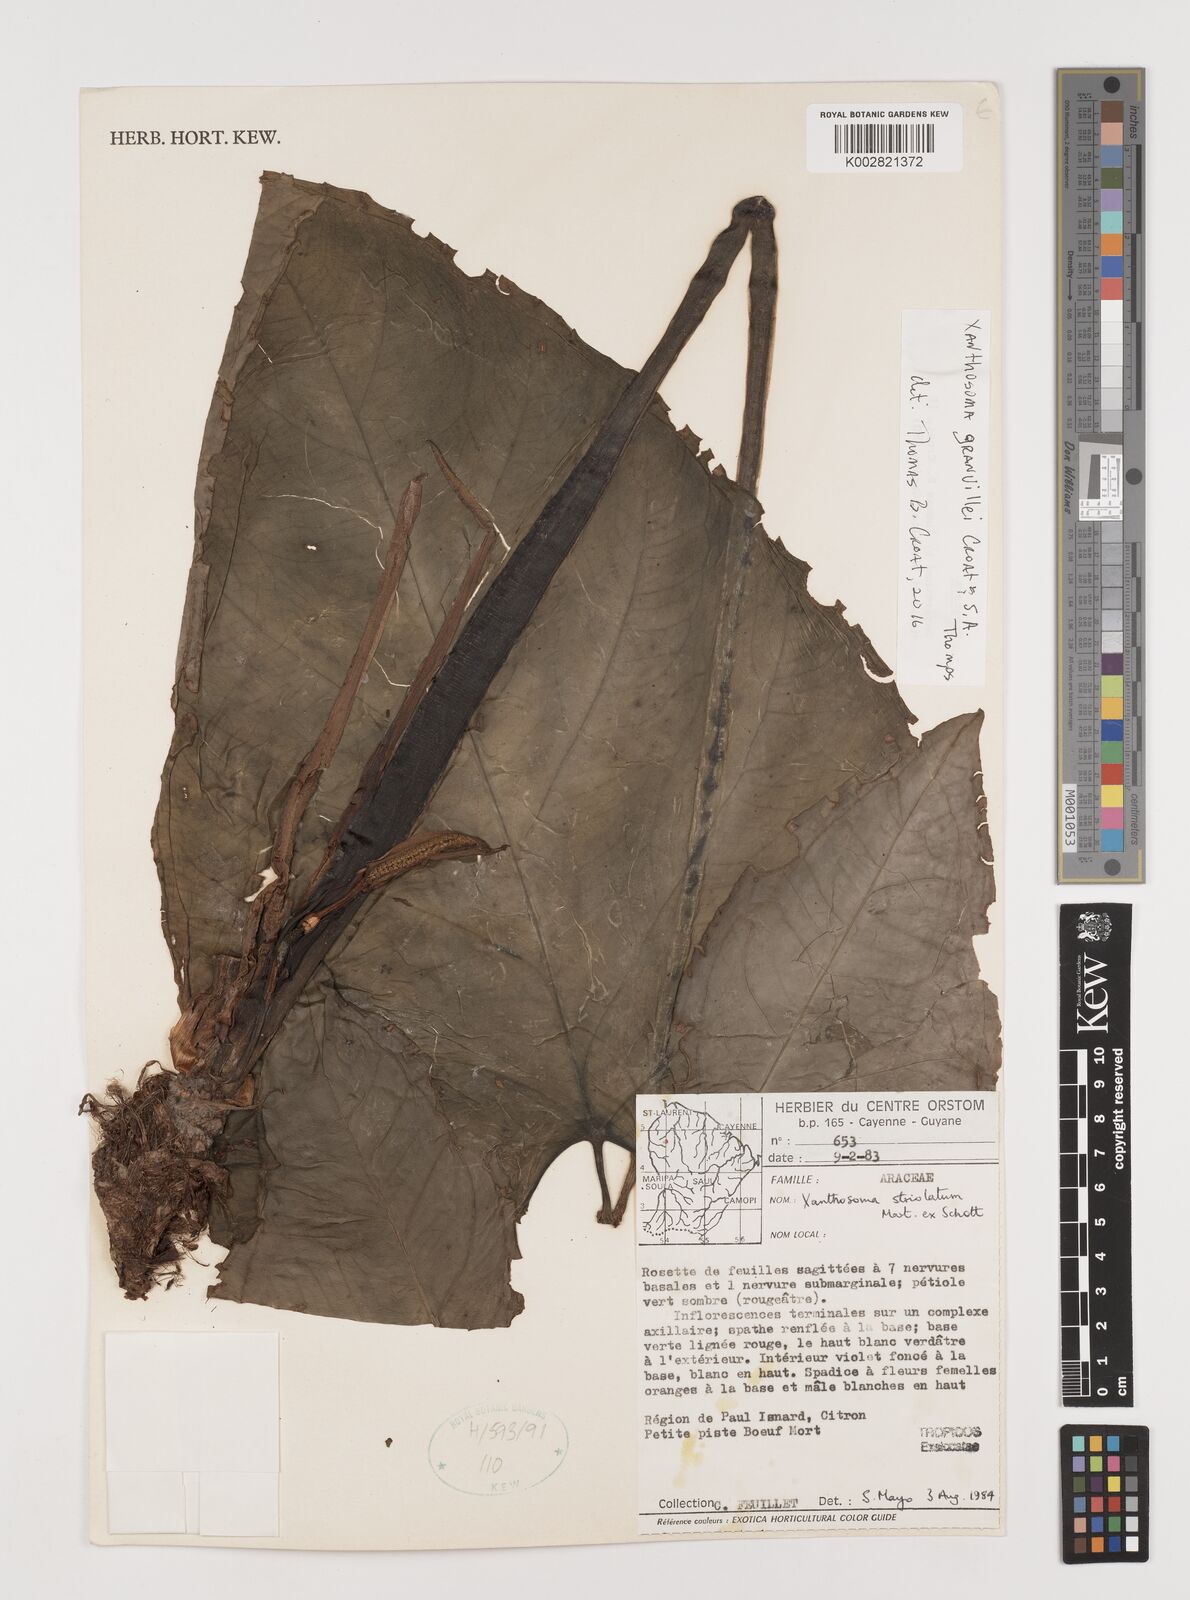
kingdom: Plantae
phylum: Tracheophyta
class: Liliopsida
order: Alismatales
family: Araceae
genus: Xanthosoma
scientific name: Xanthosoma granvillei
